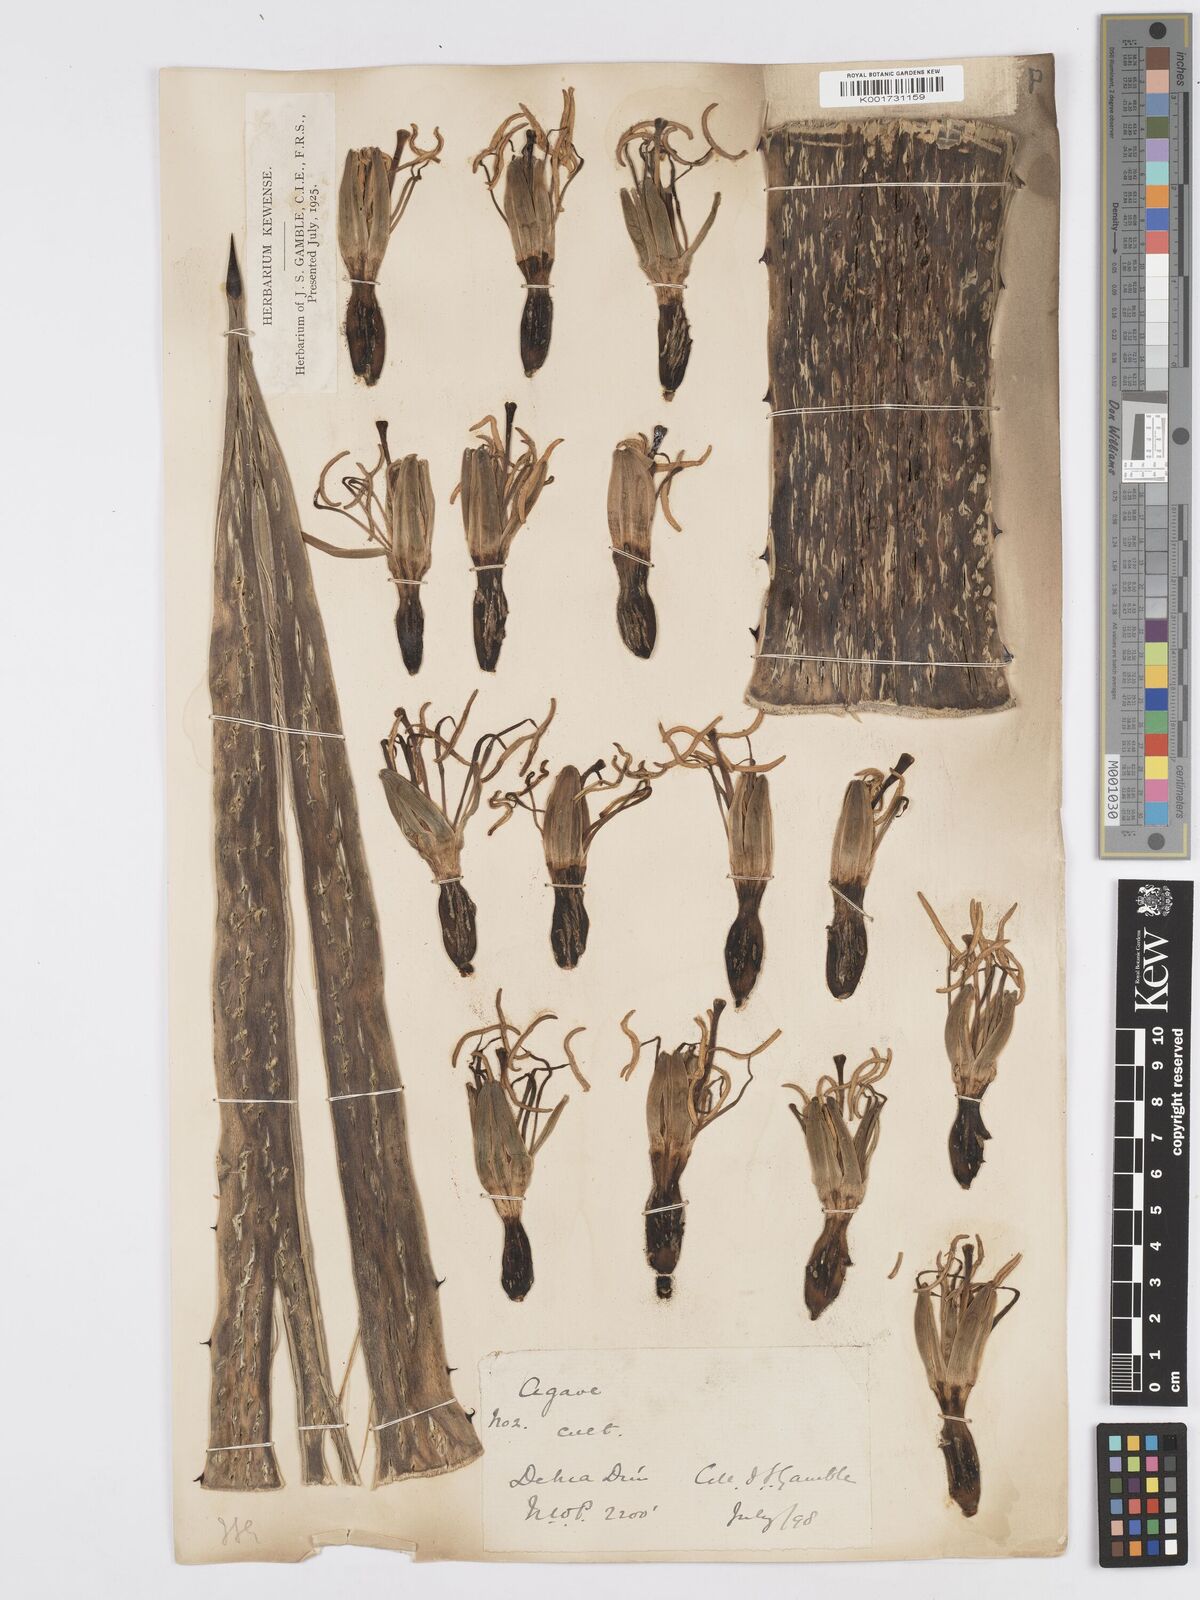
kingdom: Plantae
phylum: Tracheophyta
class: Liliopsida
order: Asparagales
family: Asparagaceae
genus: Agave
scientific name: Agave americana
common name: Centuryplant
